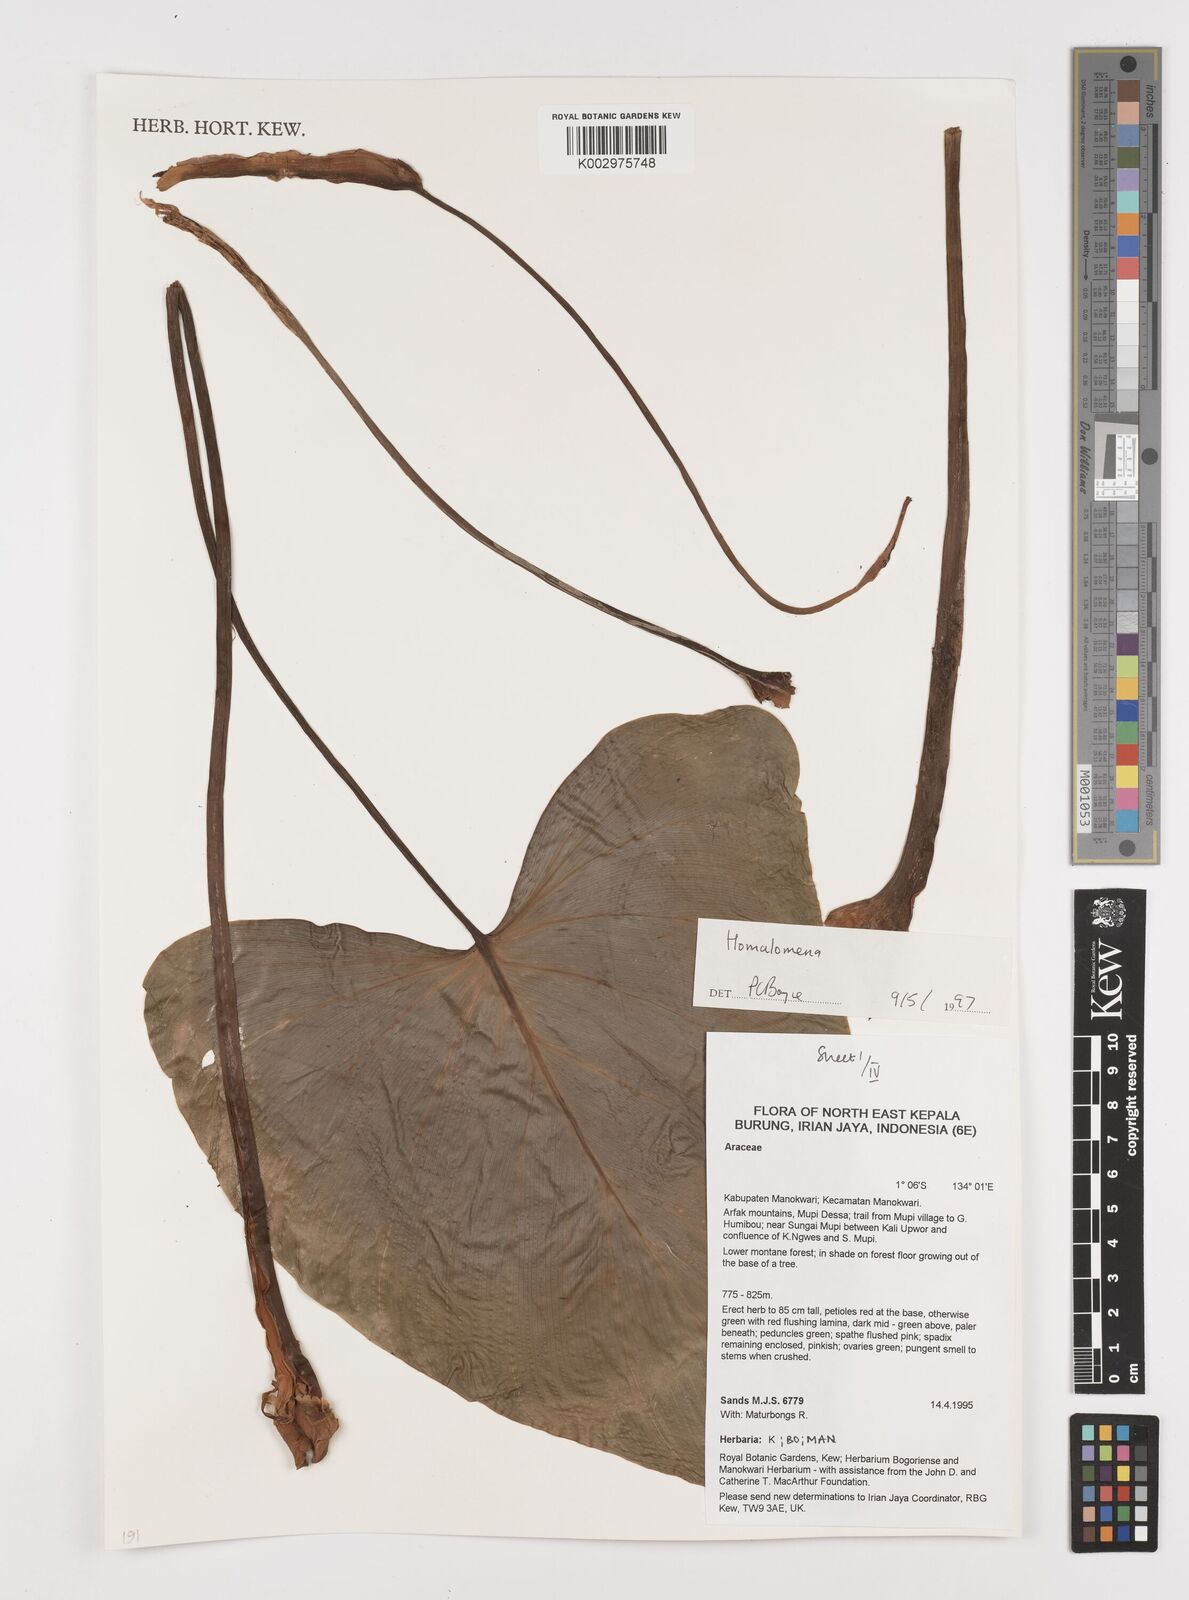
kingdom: Plantae
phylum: Tracheophyta
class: Liliopsida
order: Alismatales
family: Araceae
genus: Homalomena
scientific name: Homalomena
